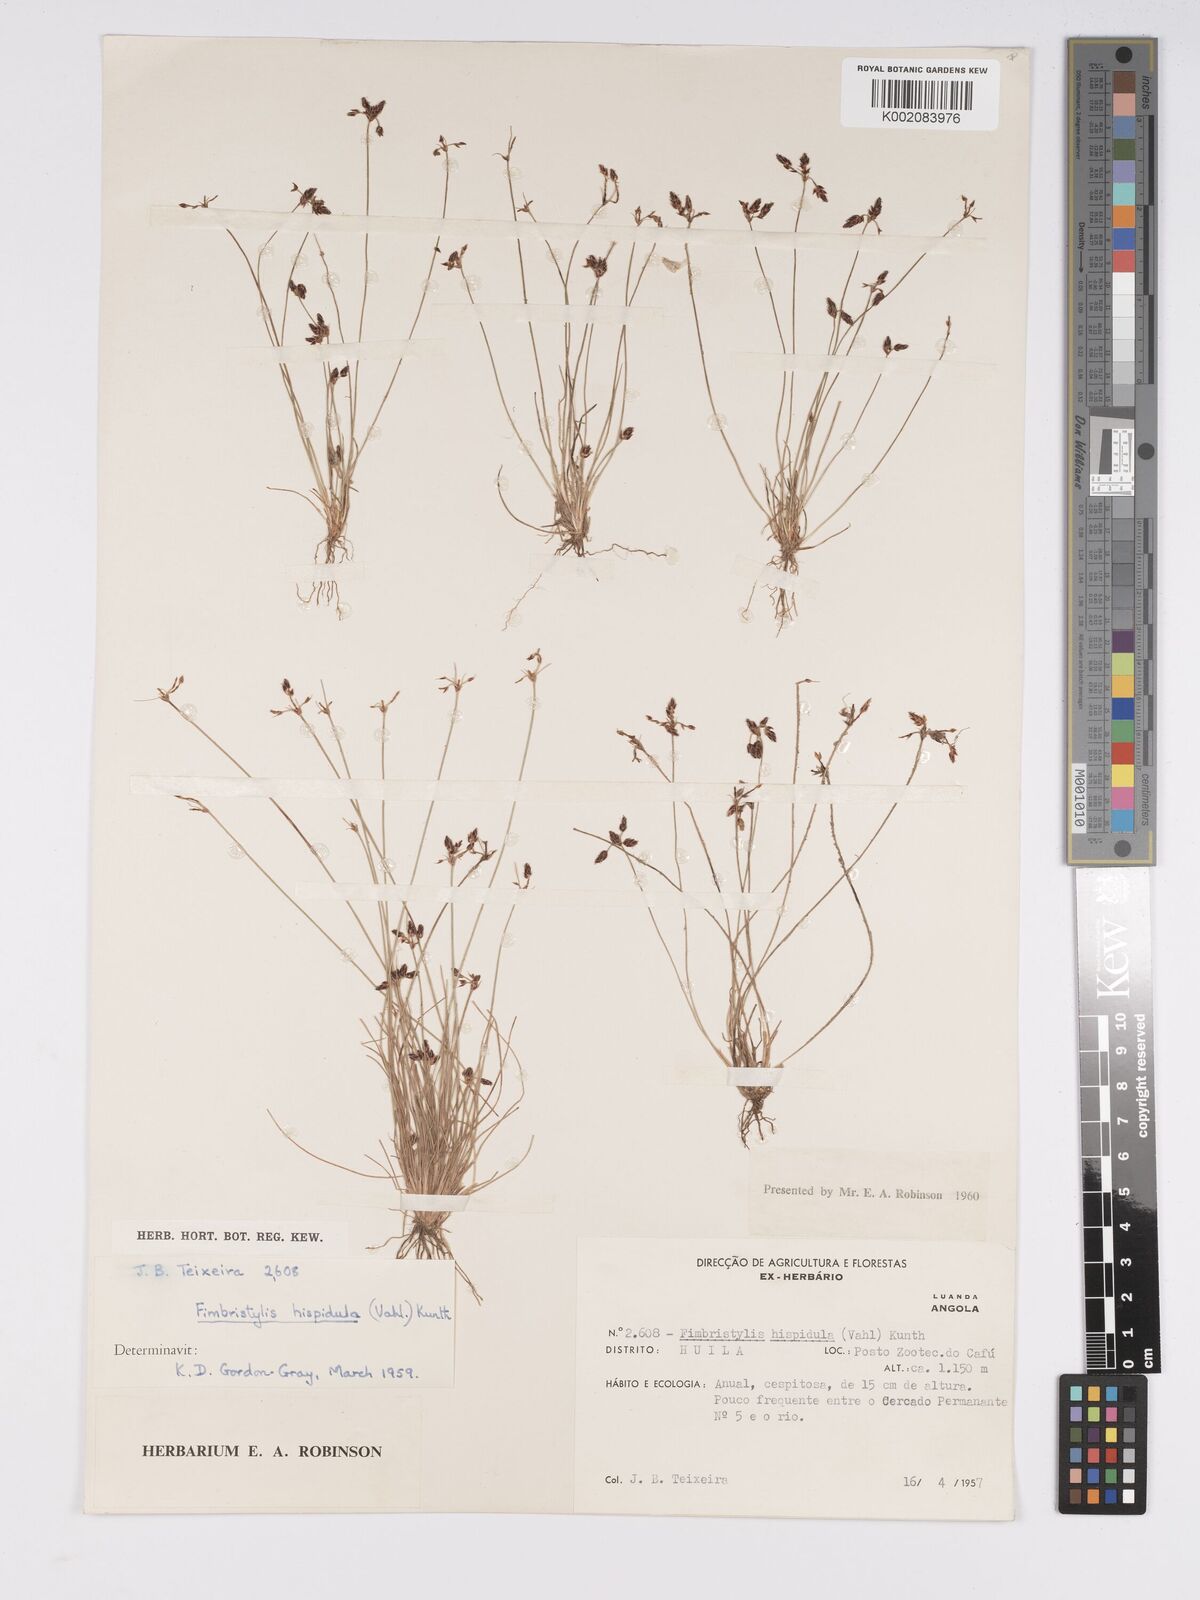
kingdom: Plantae
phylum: Tracheophyta
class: Liliopsida
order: Poales
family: Cyperaceae
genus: Bulbostylis
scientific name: Bulbostylis hispidula
